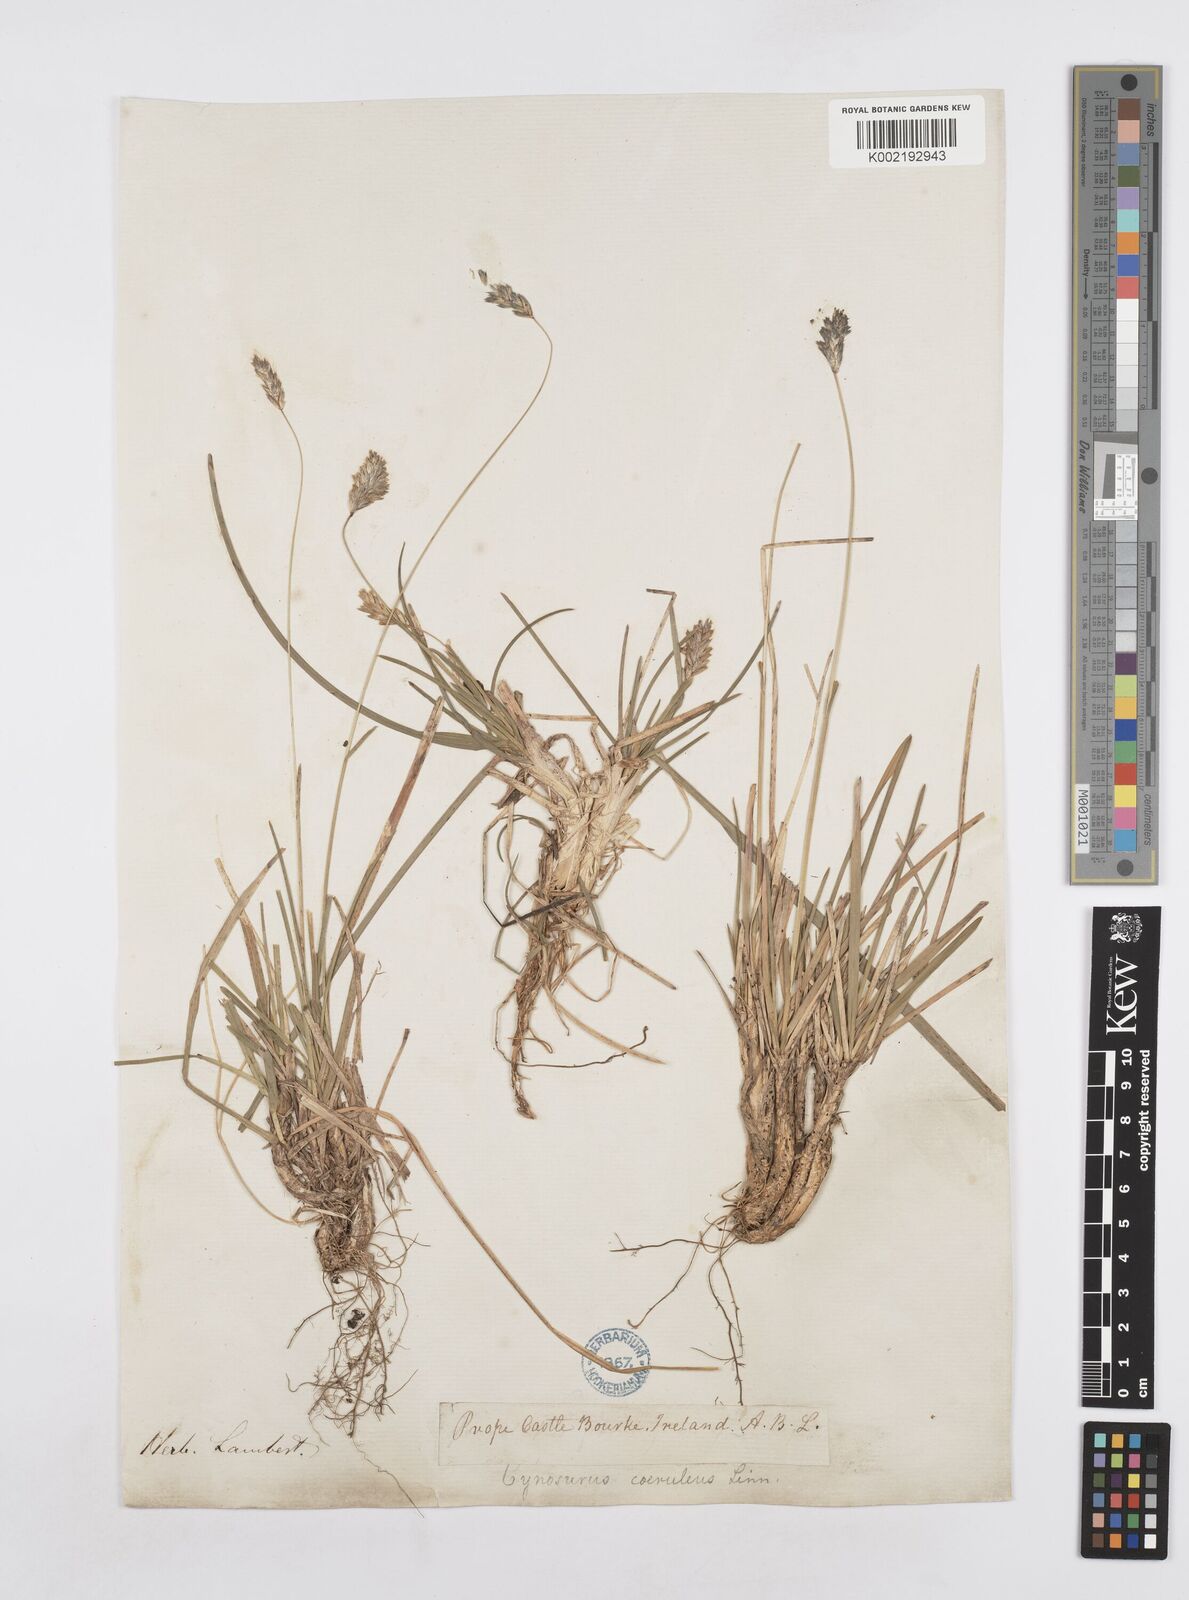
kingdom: Plantae
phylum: Tracheophyta
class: Liliopsida
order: Poales
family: Poaceae
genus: Sesleria
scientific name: Sesleria caerulea
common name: Blue moor-grass
